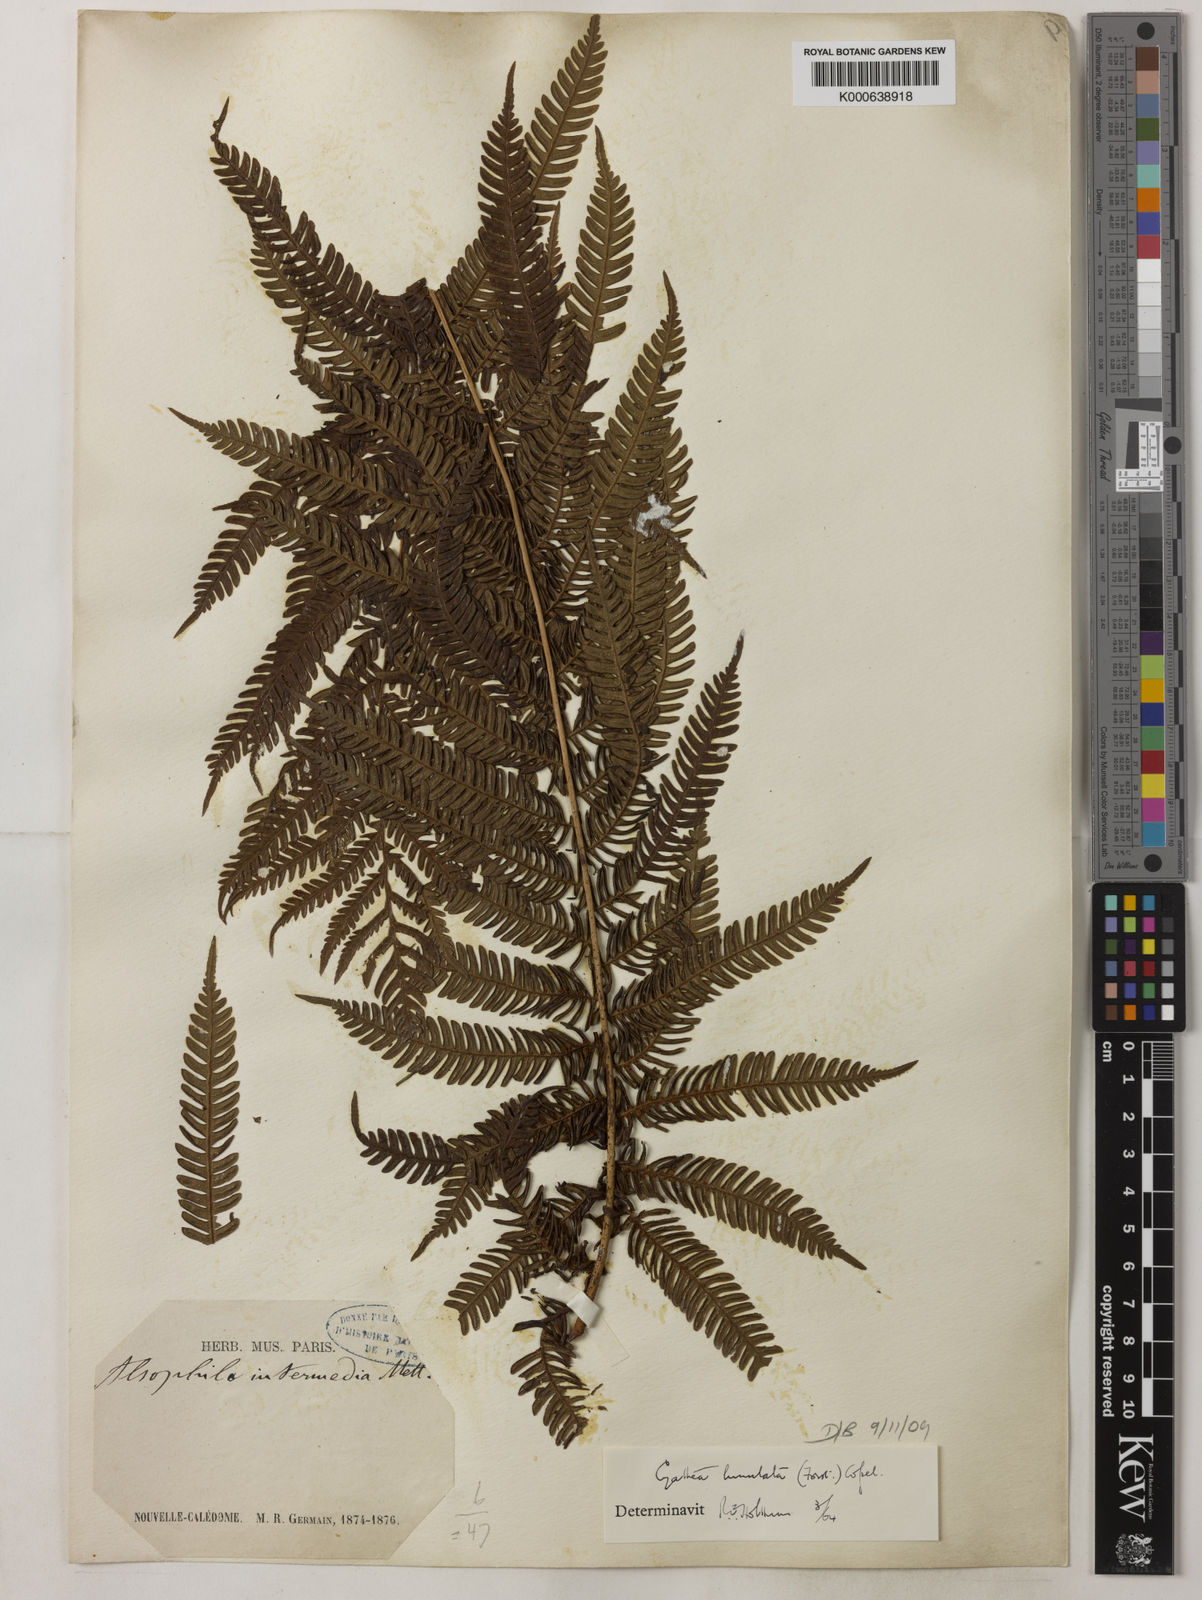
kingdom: Plantae
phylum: Tracheophyta
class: Polypodiopsida
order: Cyatheales
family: Cyatheaceae
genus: Sphaeropteris
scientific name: Sphaeropteris lunulata
